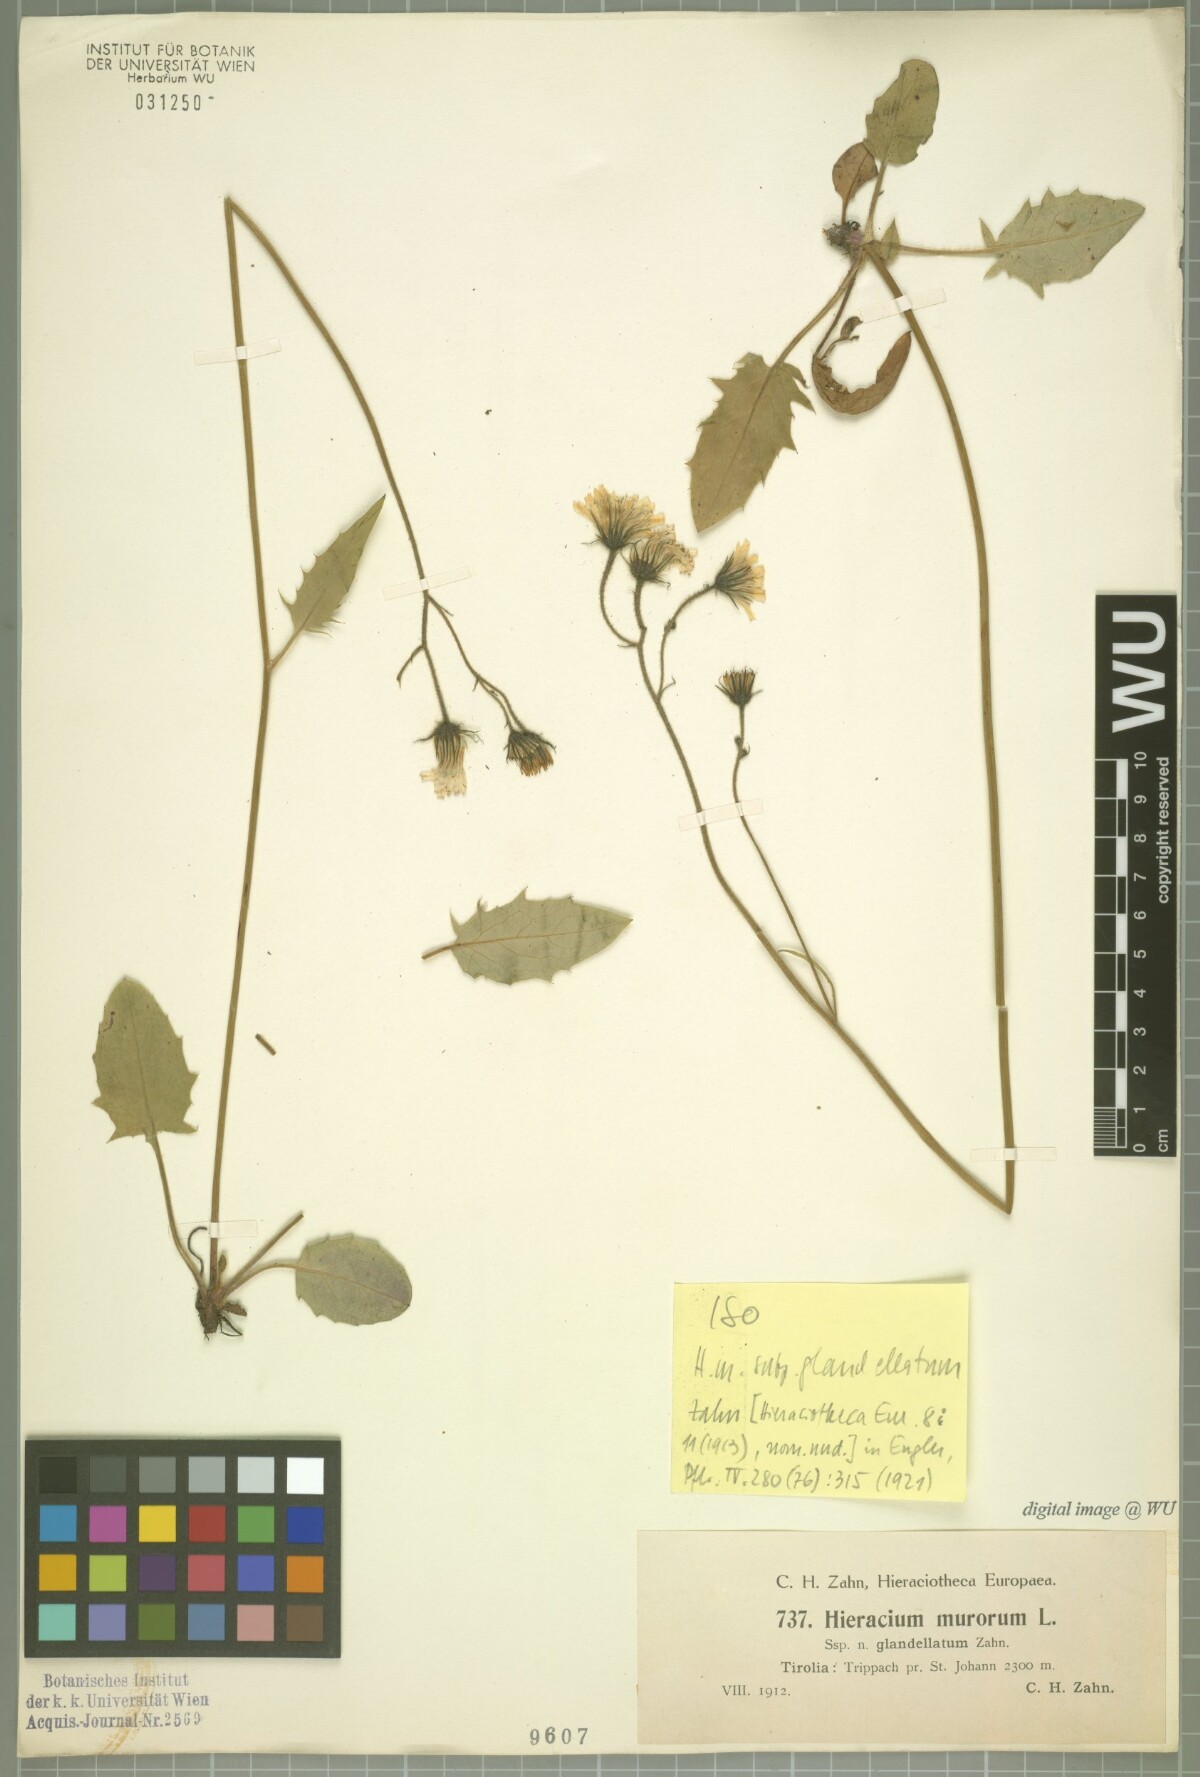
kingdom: Plantae
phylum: Tracheophyta
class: Magnoliopsida
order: Asterales
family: Asteraceae
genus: Hieracium
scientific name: Hieracium murorum
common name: Wall hawkweed
